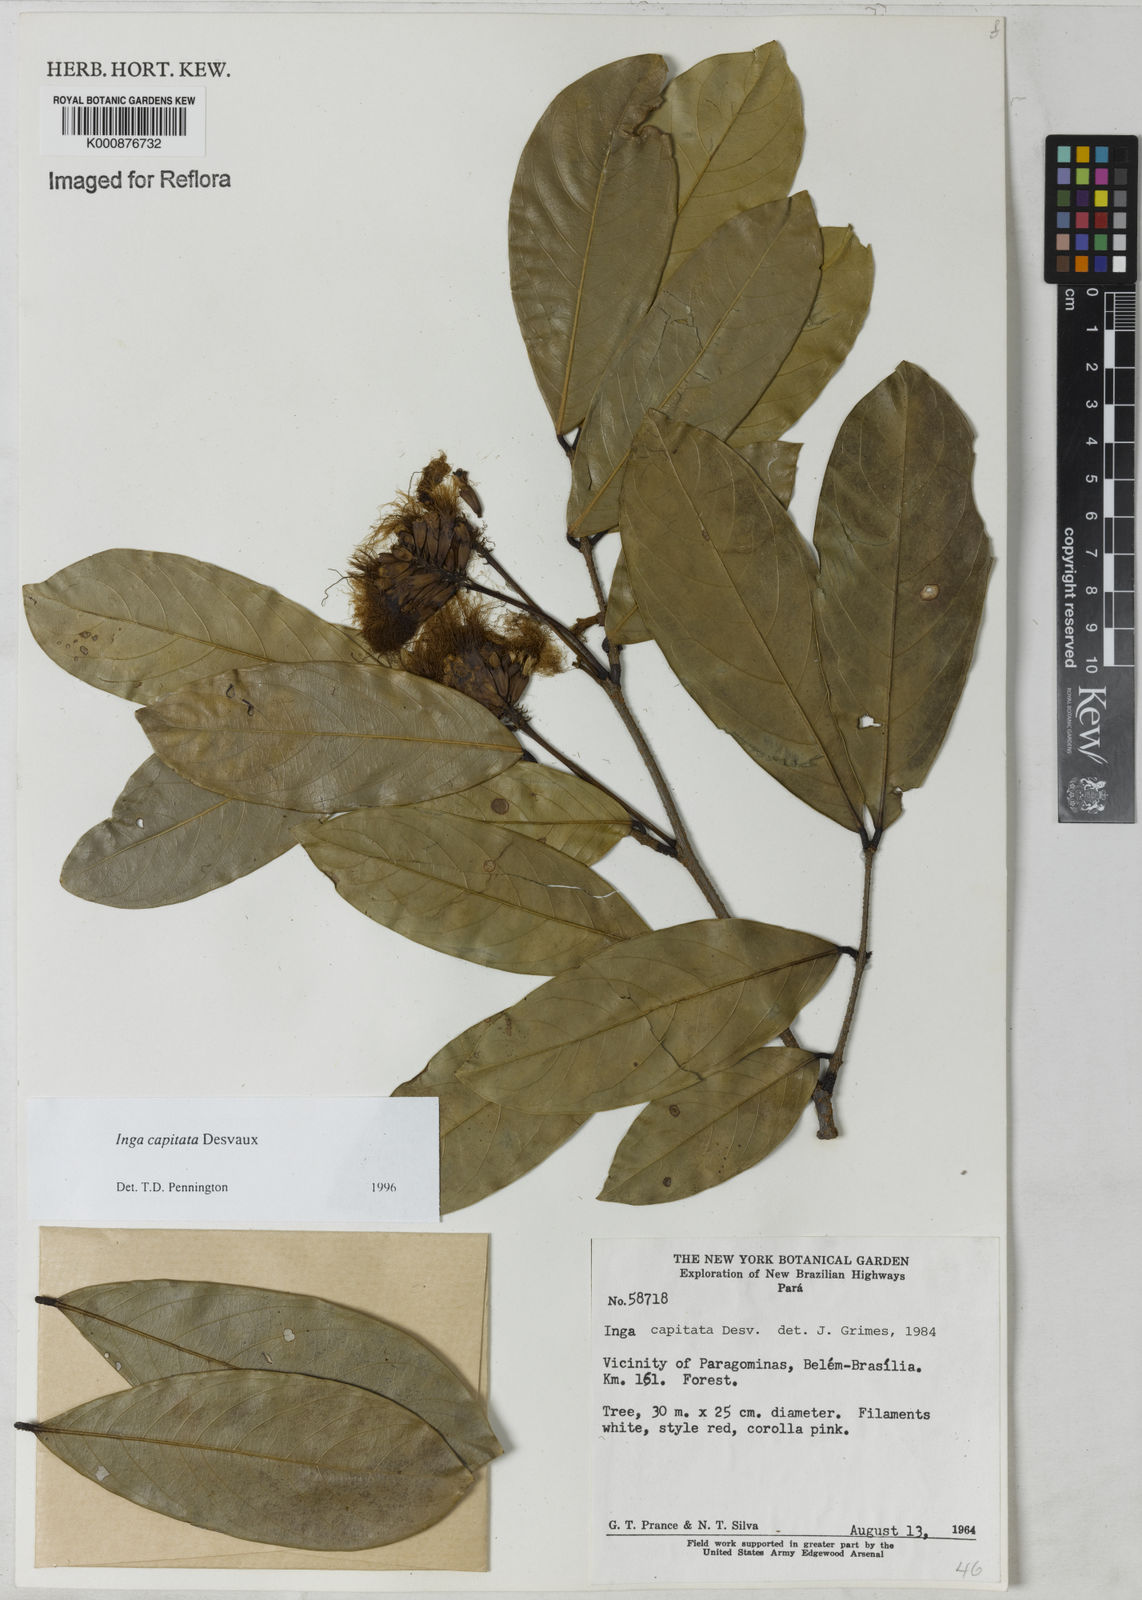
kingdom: Plantae
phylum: Tracheophyta
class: Magnoliopsida
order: Fabales
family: Fabaceae
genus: Inga
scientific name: Inga capitata
